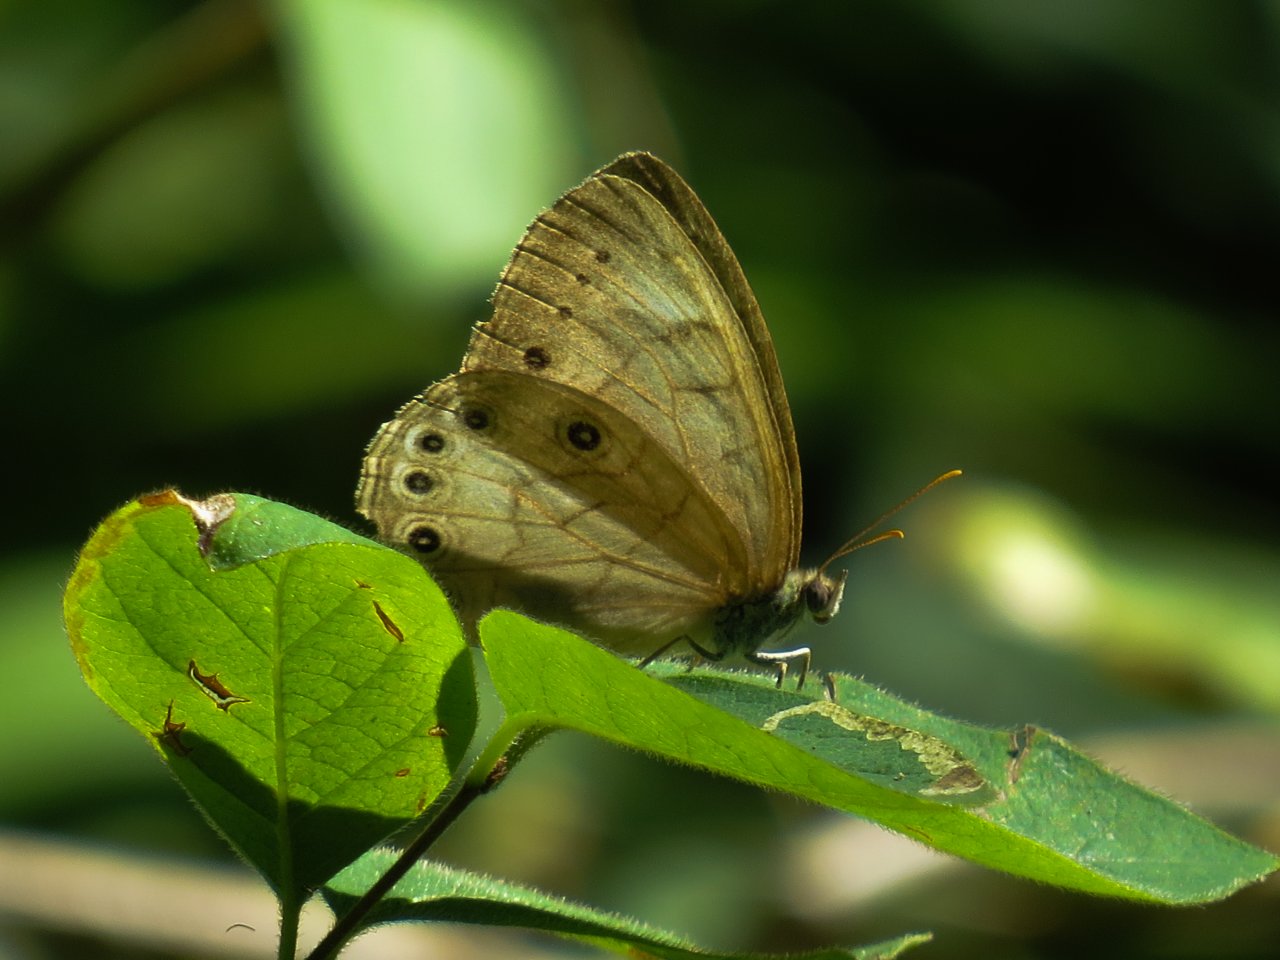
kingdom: Animalia
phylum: Arthropoda
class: Insecta
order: Lepidoptera
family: Nymphalidae
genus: Lethe
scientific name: Lethe eurydice
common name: Eyed Brown
